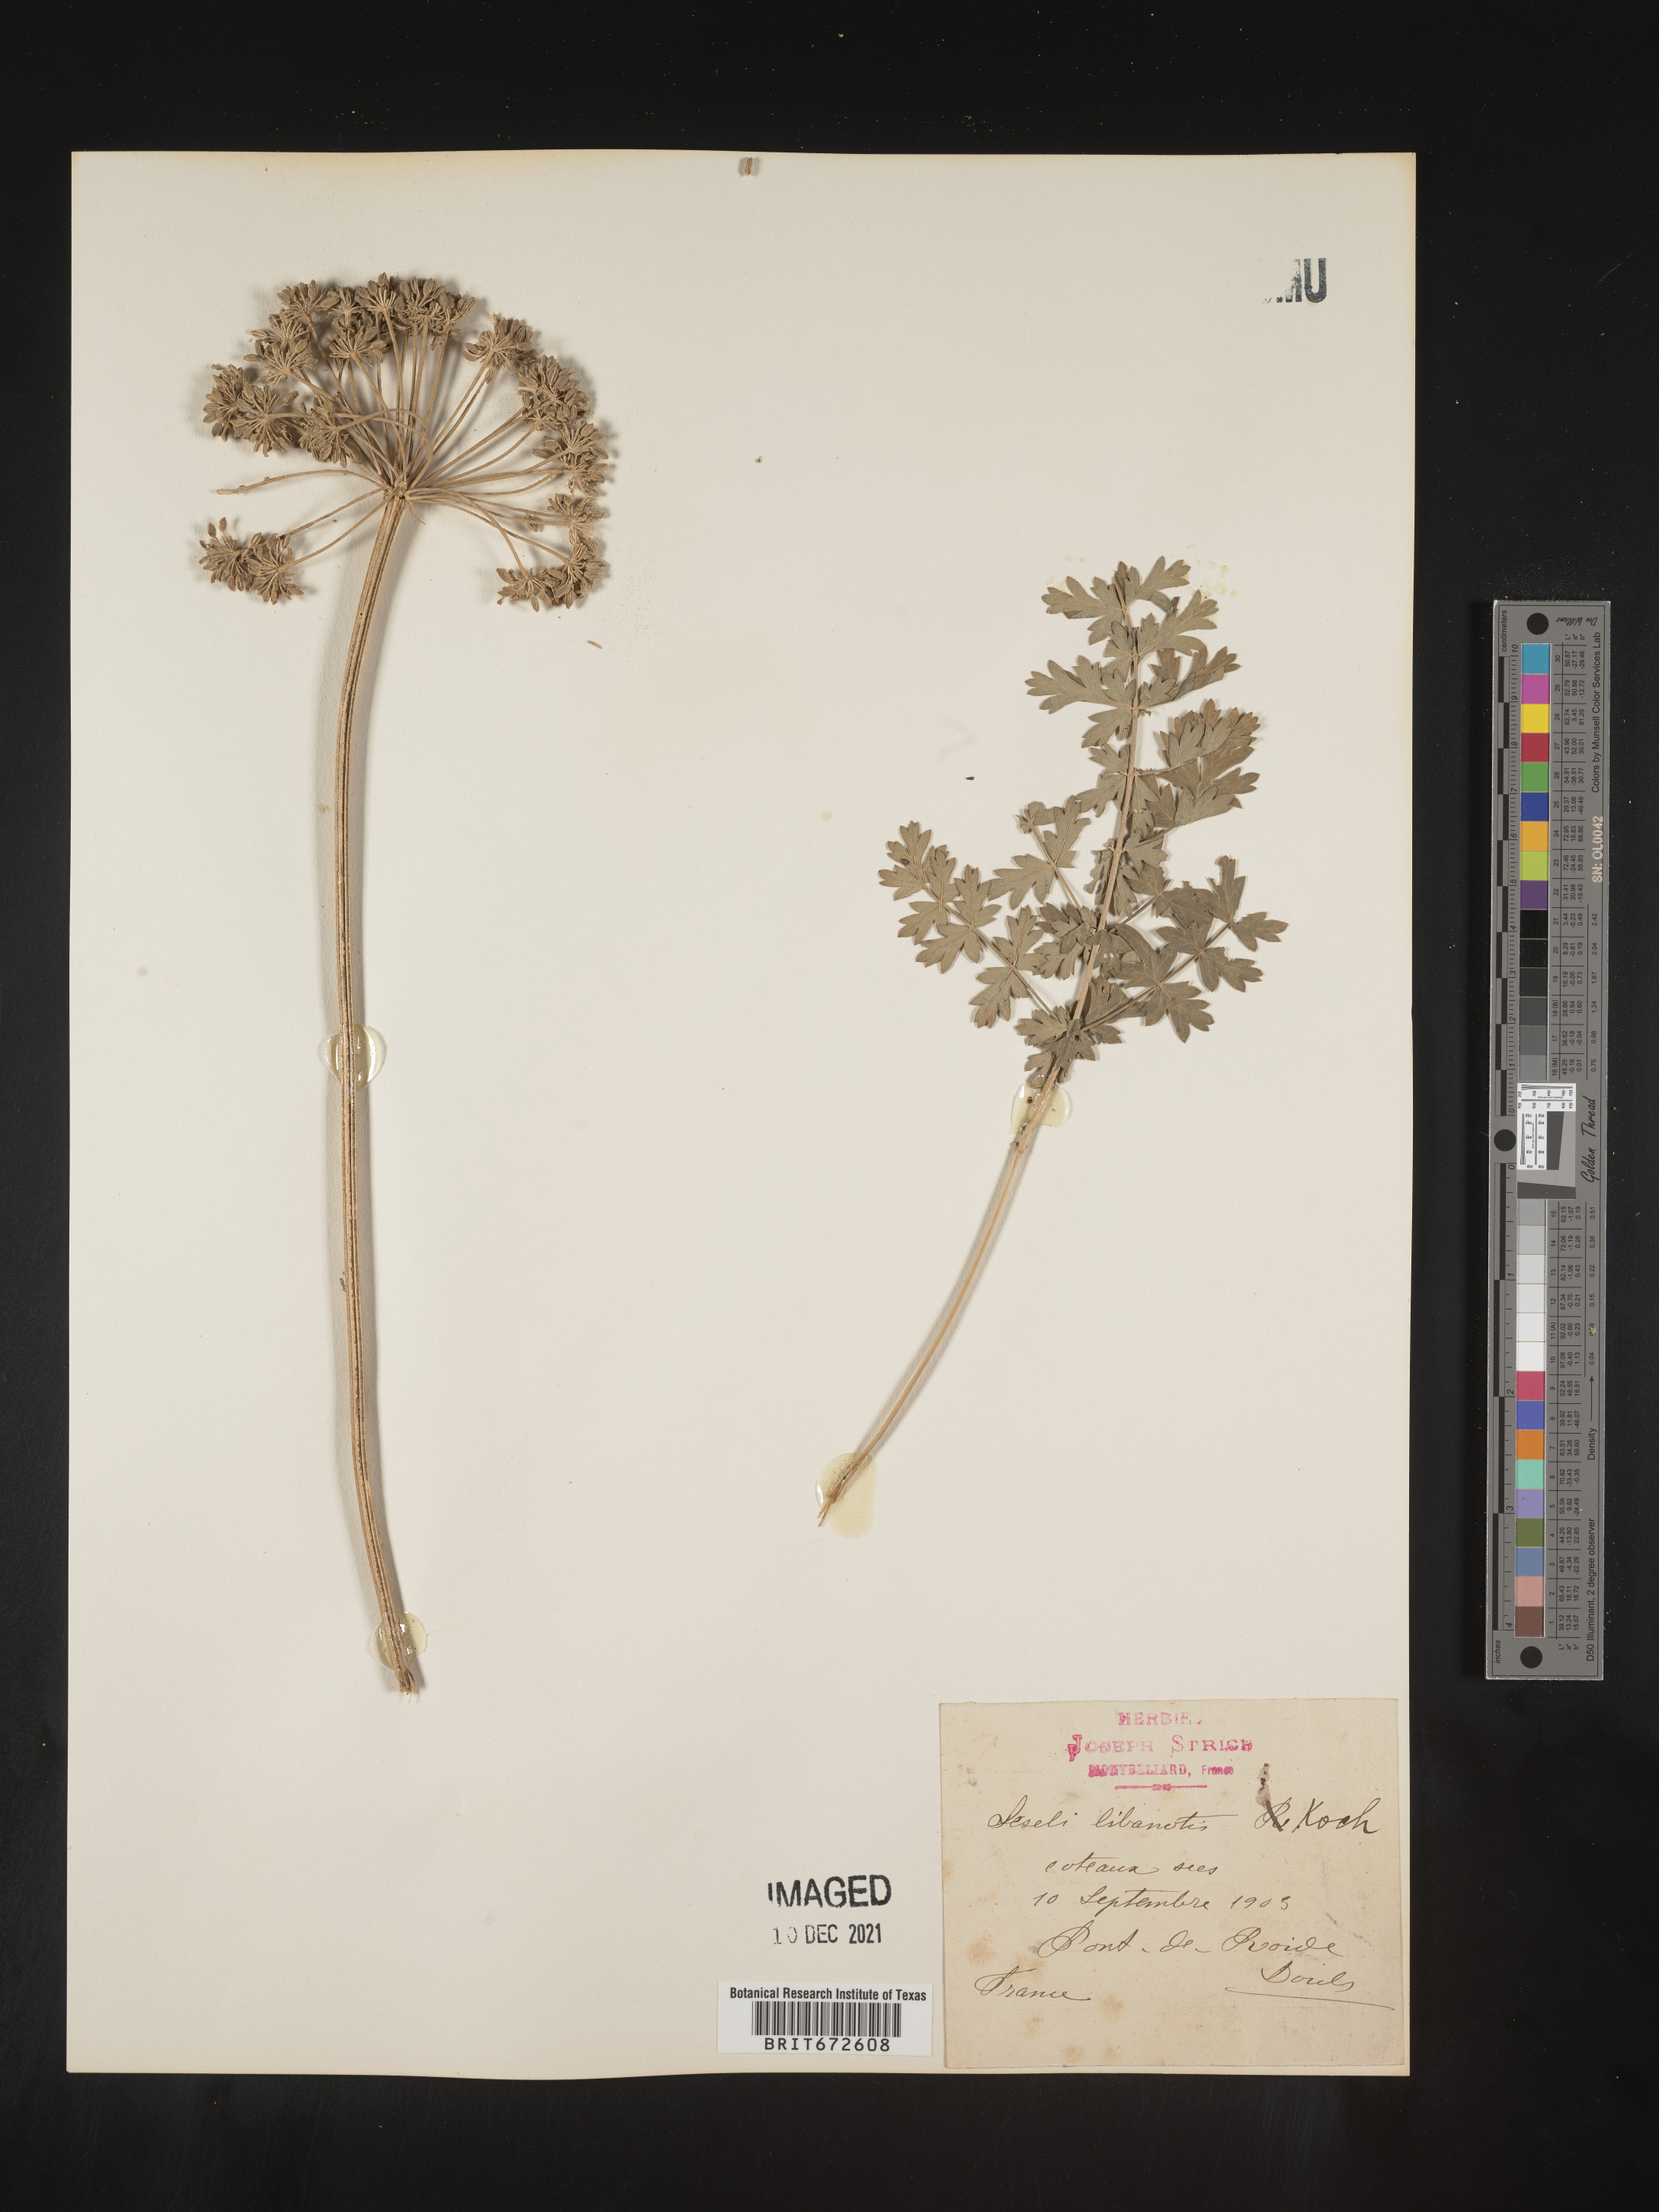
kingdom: Plantae
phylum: Tracheophyta
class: Magnoliopsida
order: Apiales
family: Apiaceae
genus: Seseli
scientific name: Seseli
